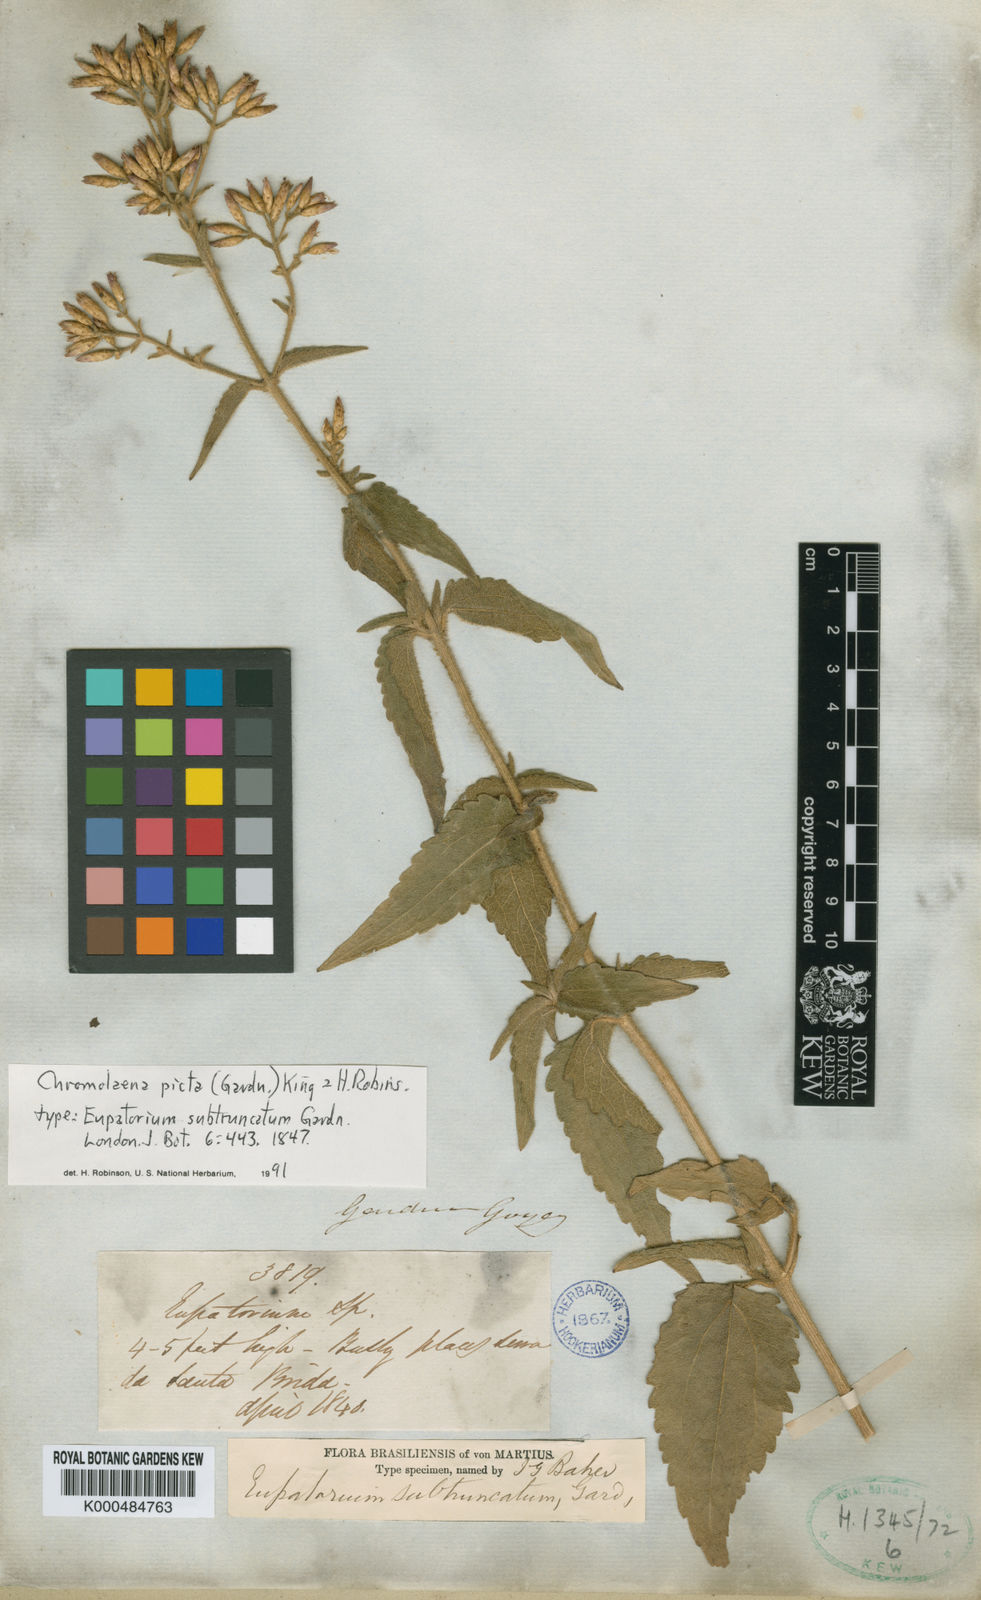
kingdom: Plantae
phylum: Tracheophyta
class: Magnoliopsida
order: Asterales
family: Asteraceae
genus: Chromolaena
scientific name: Chromolaena picta
